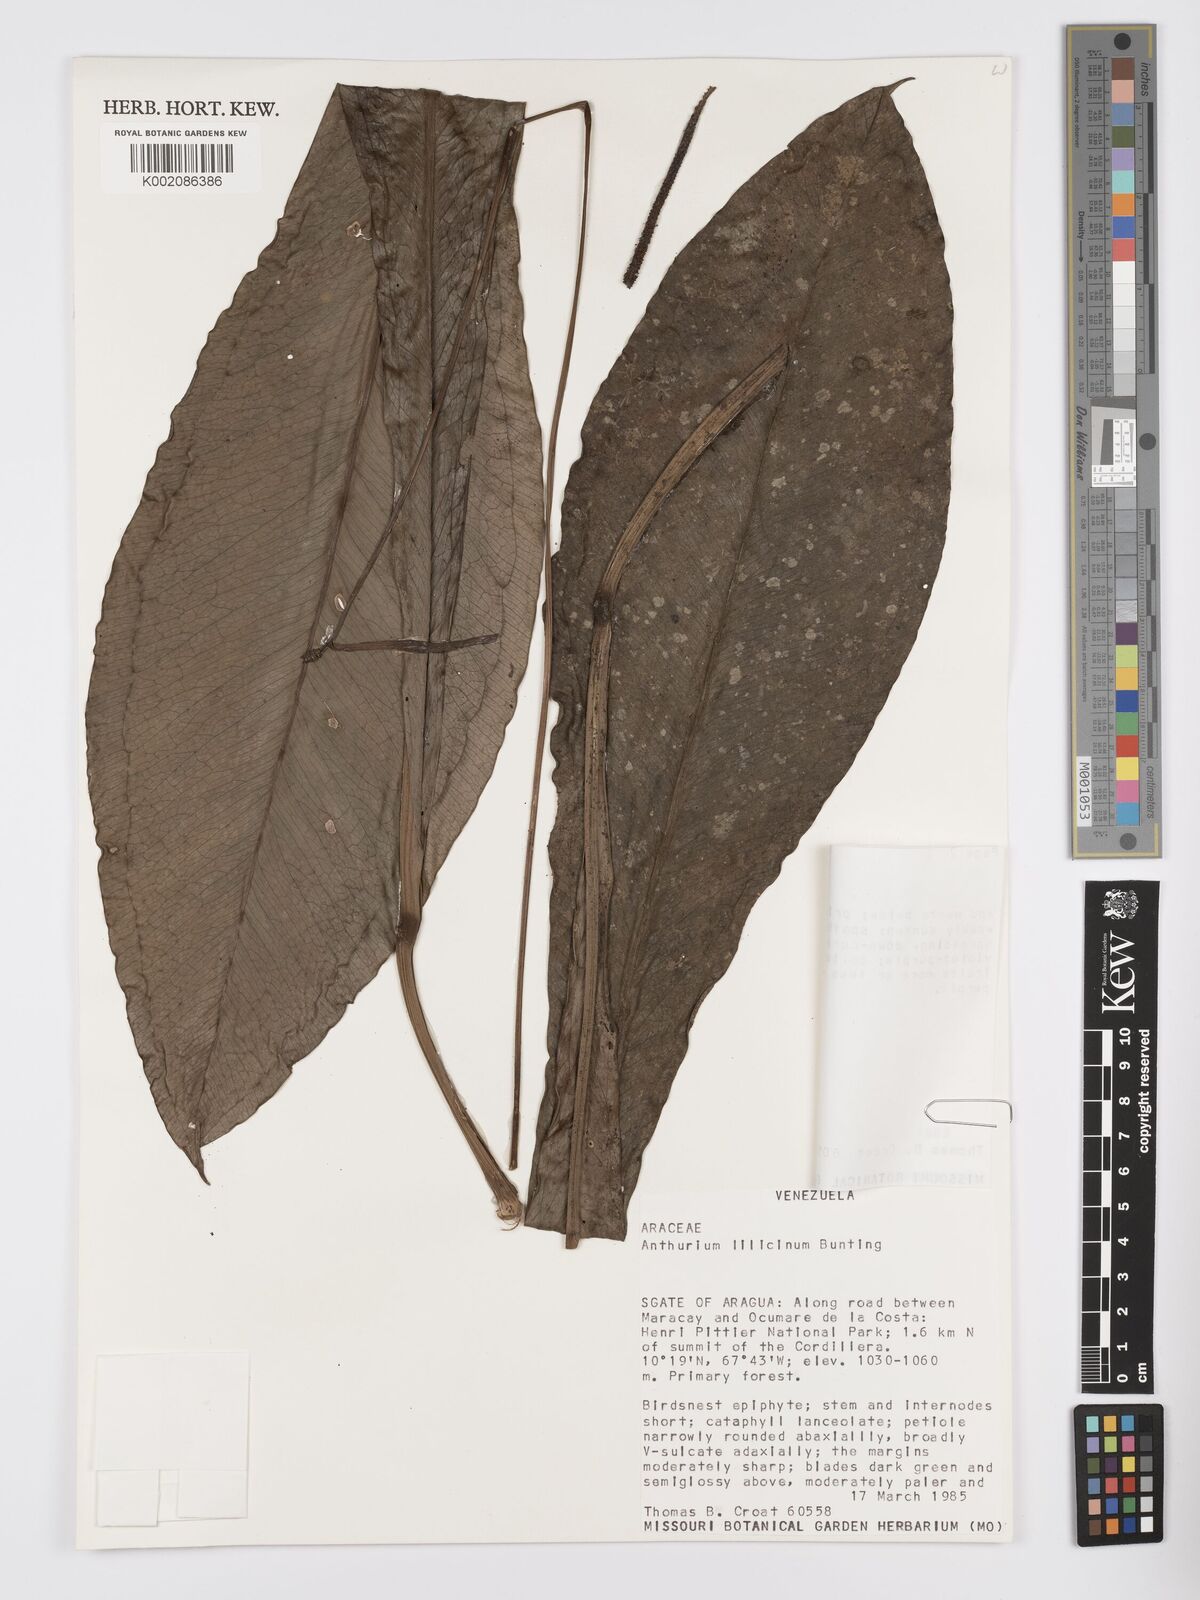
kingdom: Plantae
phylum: Tracheophyta
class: Liliopsida
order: Alismatales
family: Araceae
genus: Anthurium
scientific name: Anthurium lilacinum
